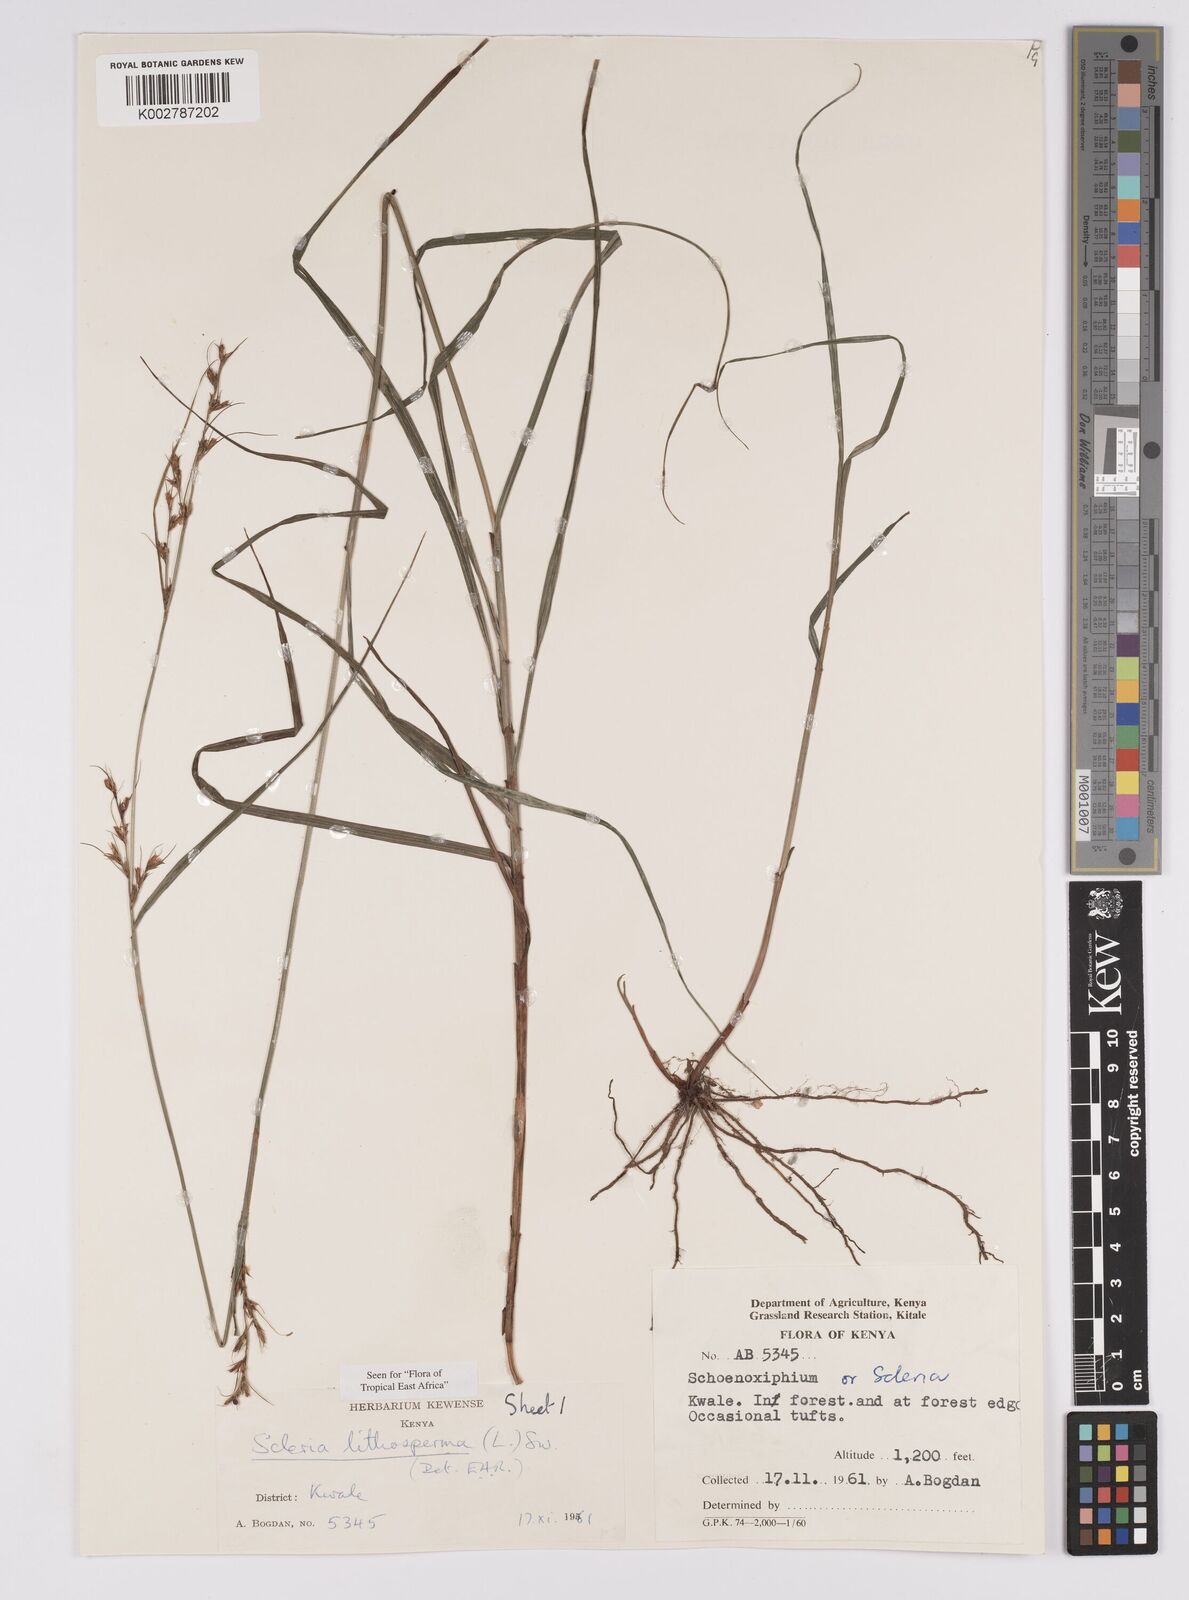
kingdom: Plantae
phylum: Tracheophyta
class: Liliopsida
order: Poales
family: Cyperaceae
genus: Scleria
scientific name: Scleria lithosperma
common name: Florida keys nut-rush
